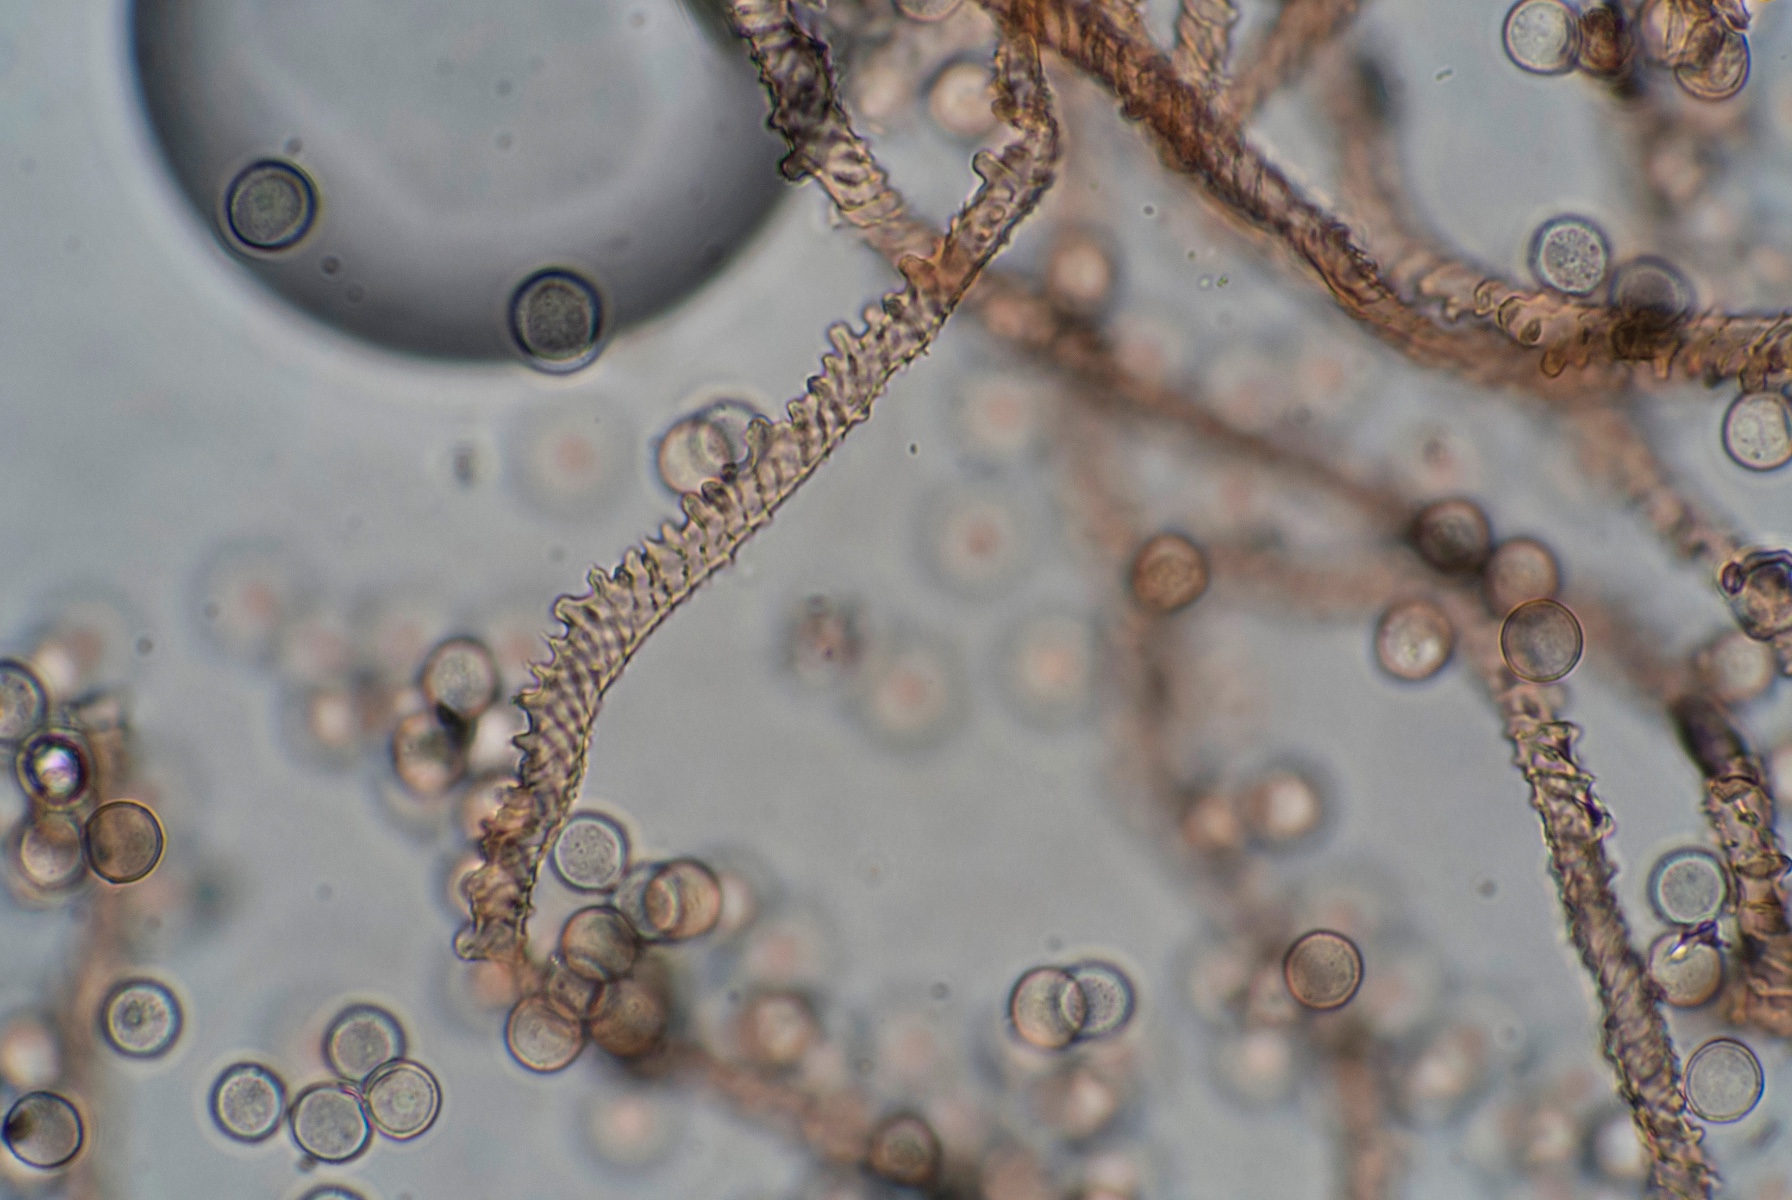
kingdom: Protozoa
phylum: Mycetozoa
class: Myxomycetes
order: Trichiales
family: Arcyriaceae
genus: Arcyria
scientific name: Arcyria stipata
